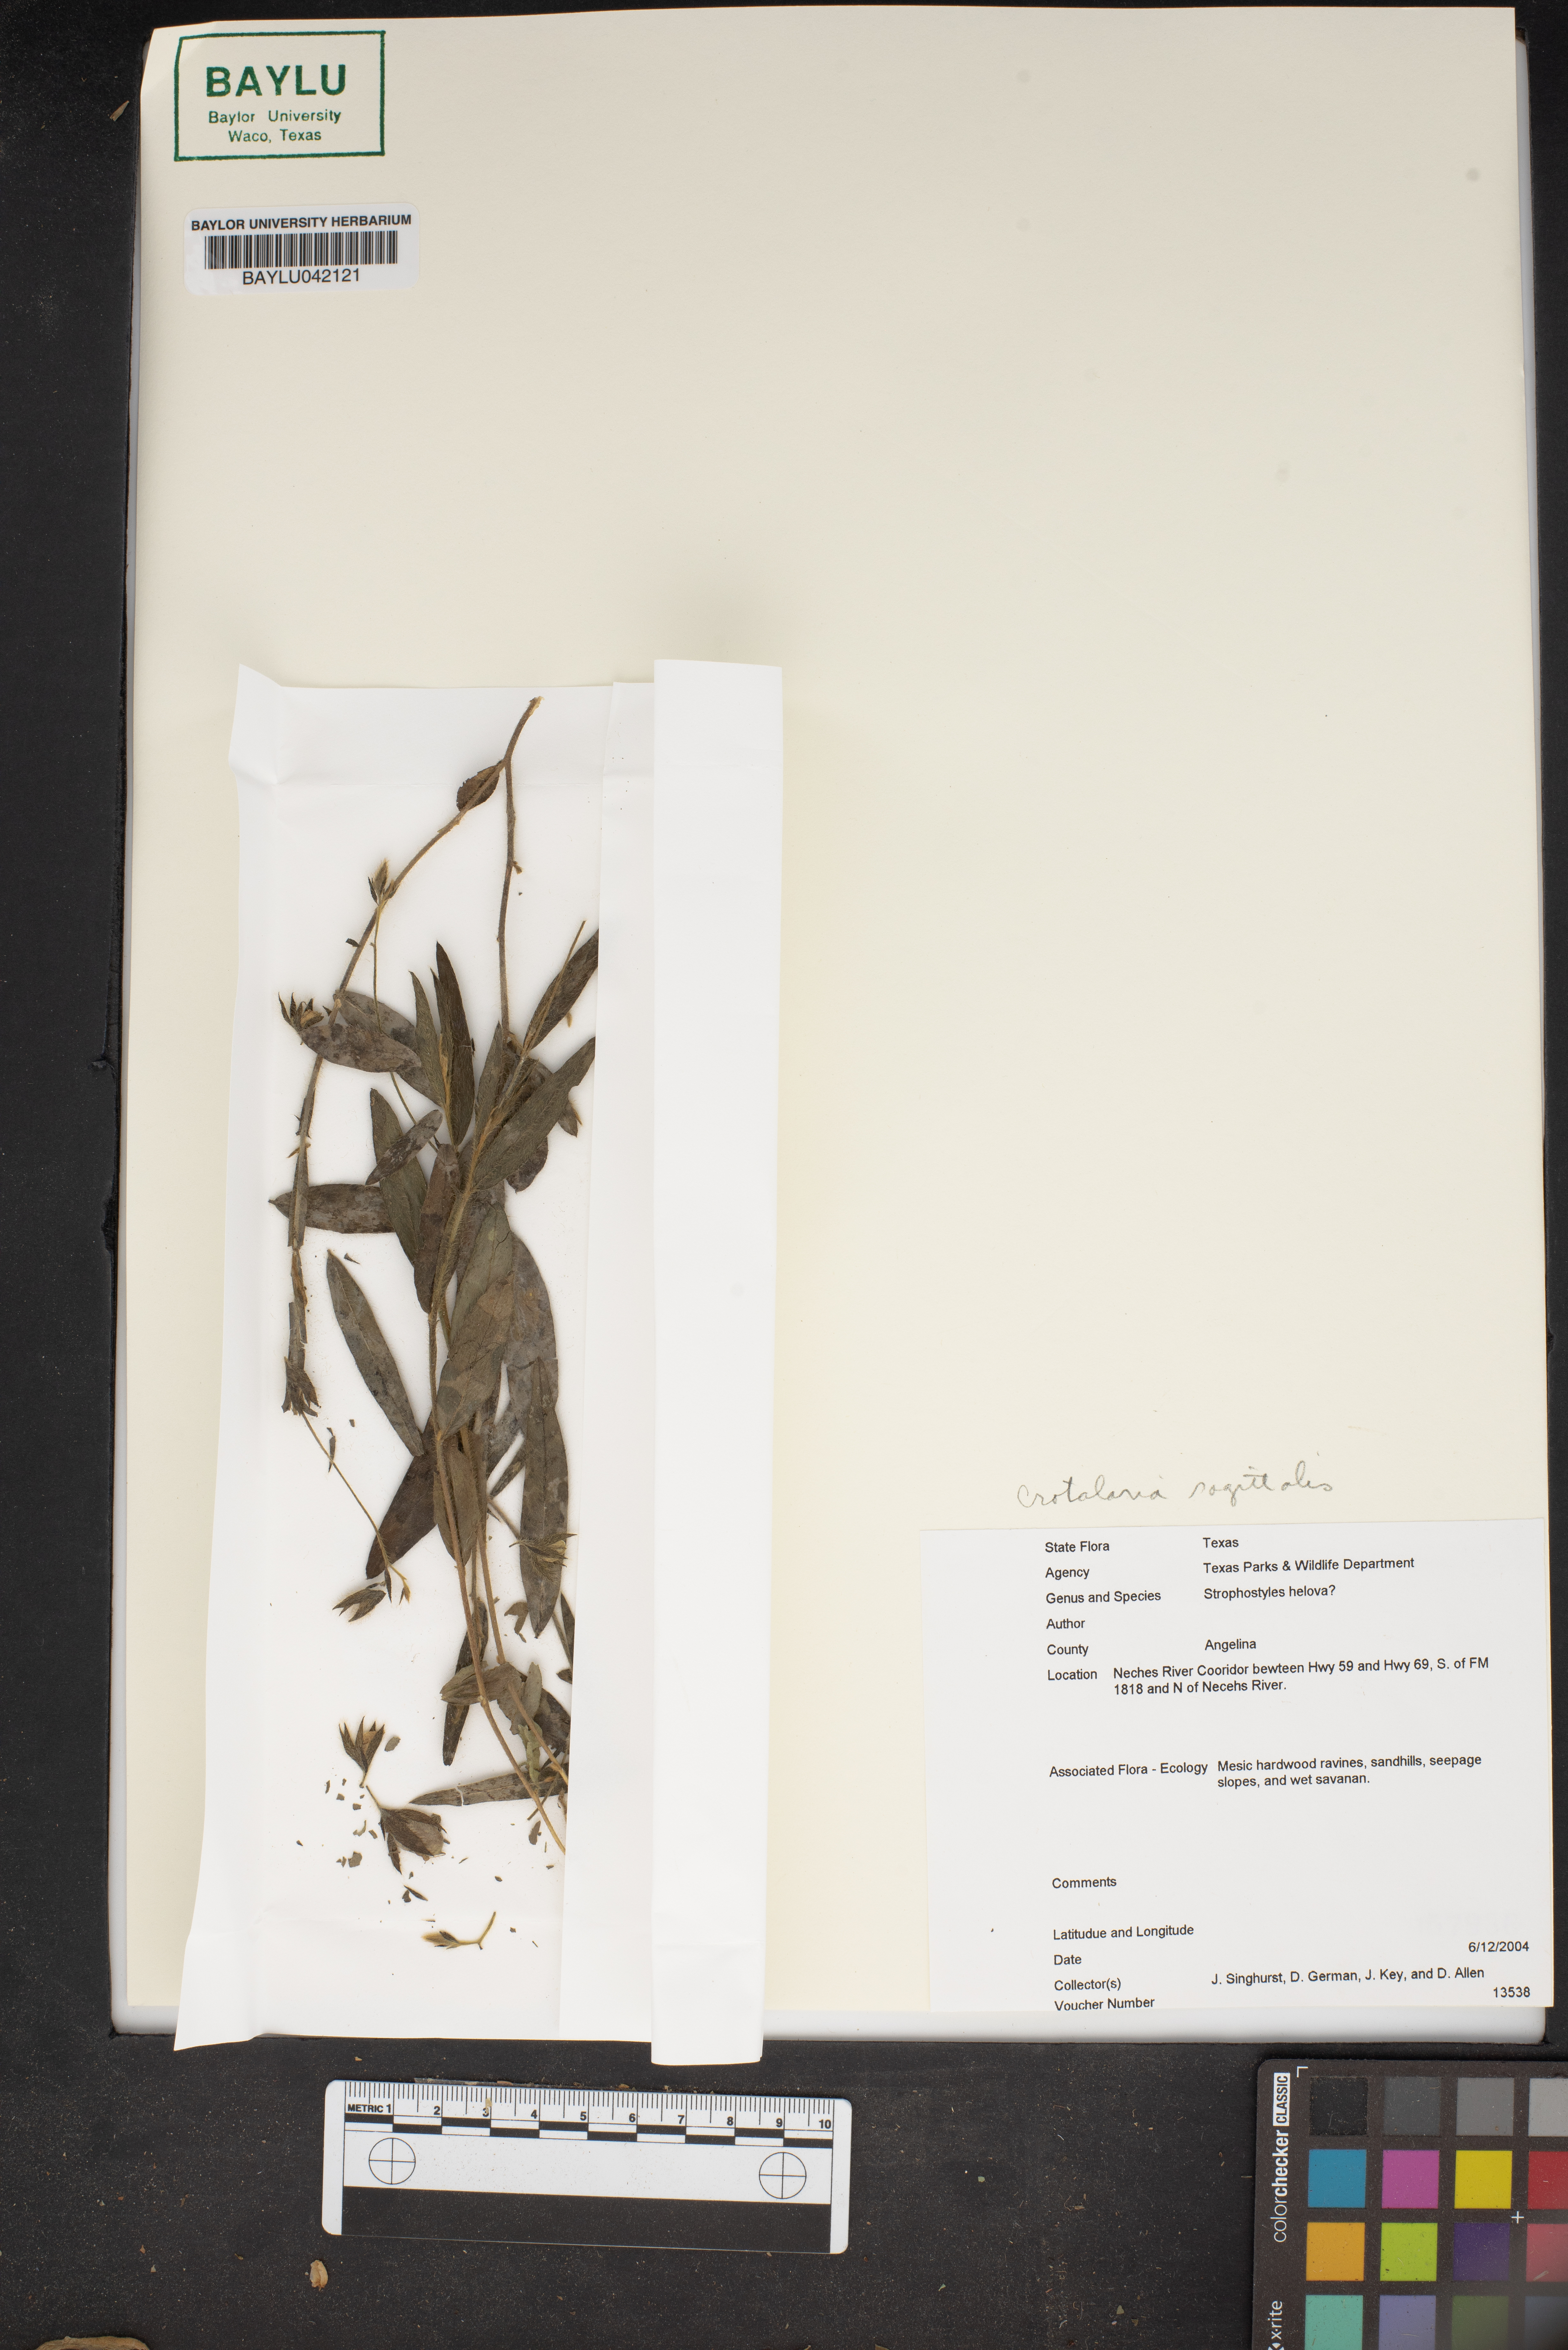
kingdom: Plantae
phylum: Tracheophyta
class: Magnoliopsida
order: Fabales
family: Fabaceae
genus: Strophostyles
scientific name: Strophostyles helvola
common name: Trailing wild bean
